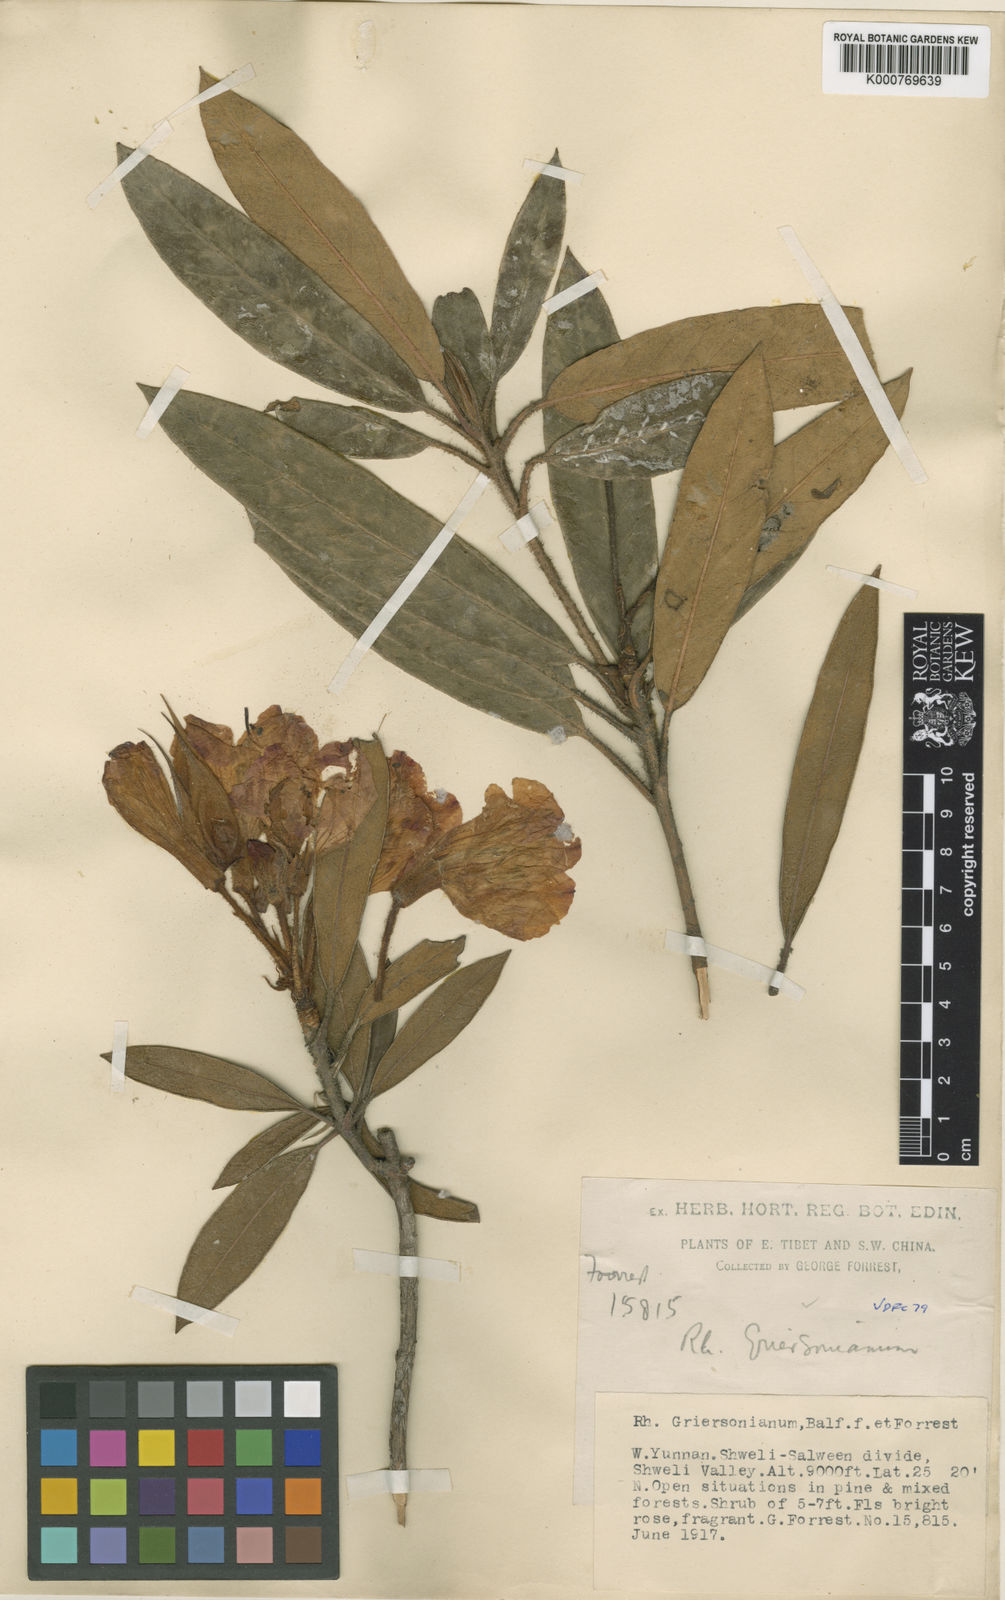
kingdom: Plantae
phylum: Tracheophyta
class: Magnoliopsida
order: Ericales
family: Ericaceae
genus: Rhododendron
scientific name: Rhododendron griersonianum
